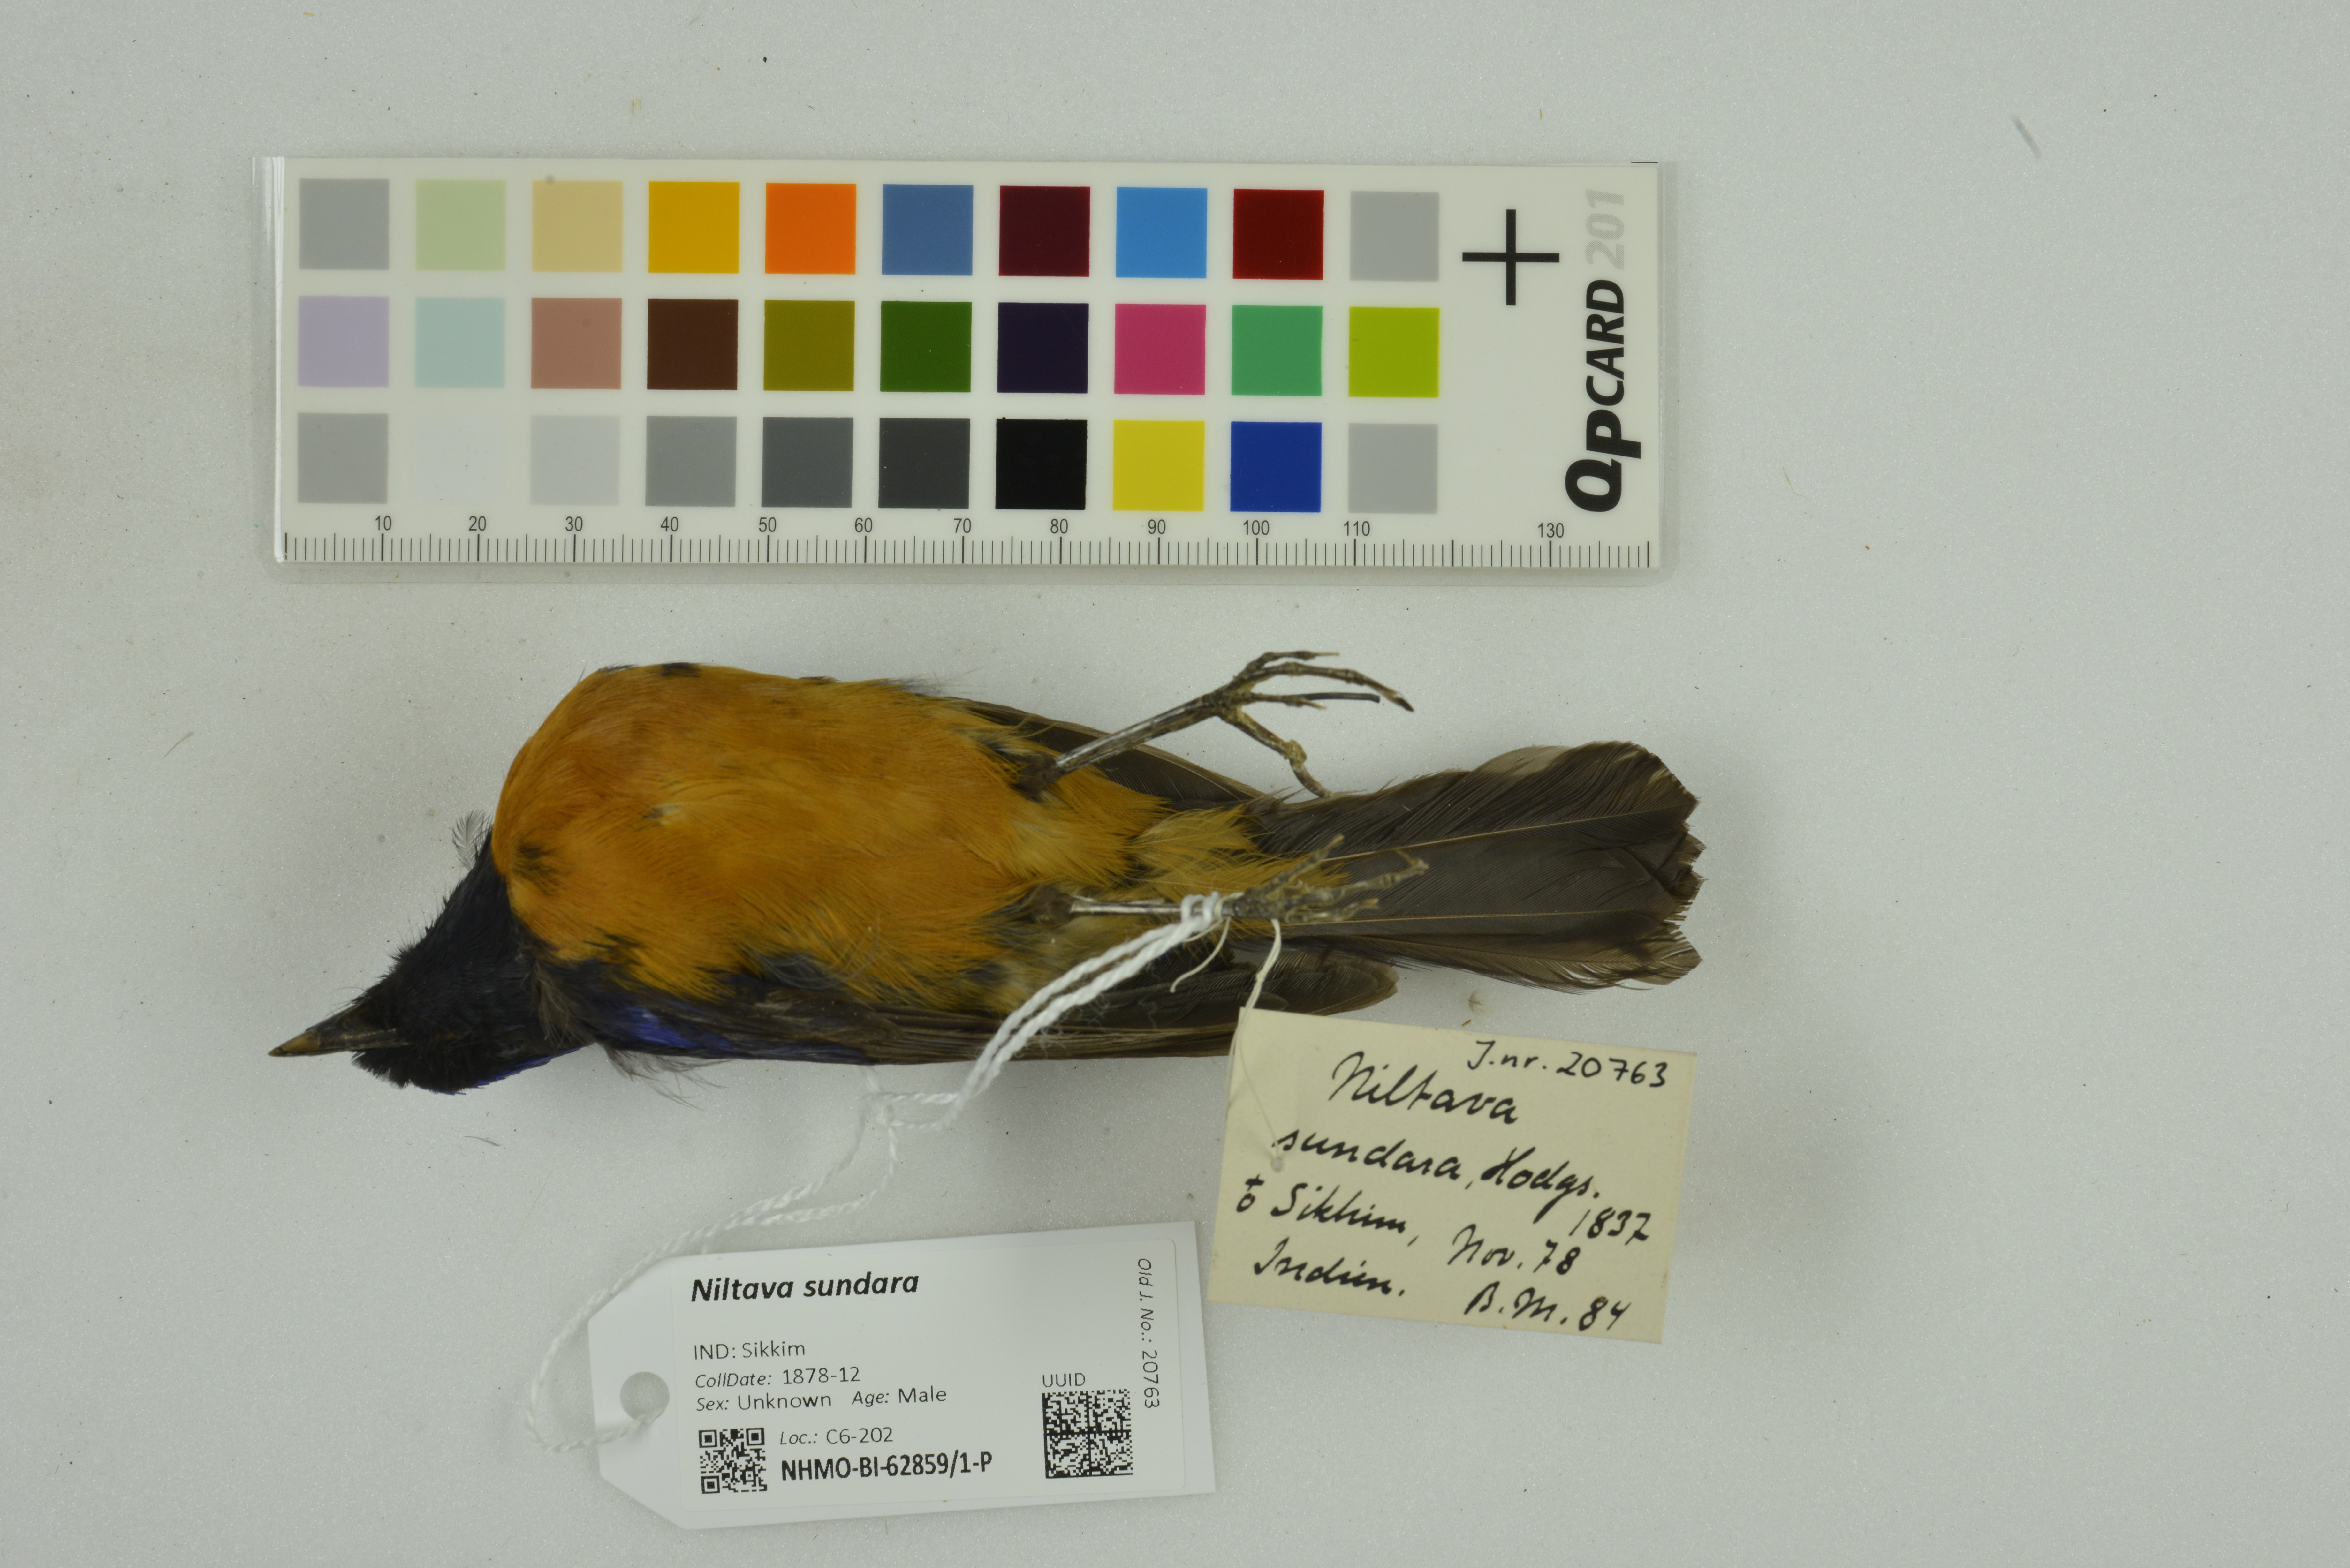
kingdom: Animalia
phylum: Chordata
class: Aves
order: Passeriformes
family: Muscicapidae
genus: Niltava
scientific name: Niltava sundara
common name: Rufous-bellied niltava
